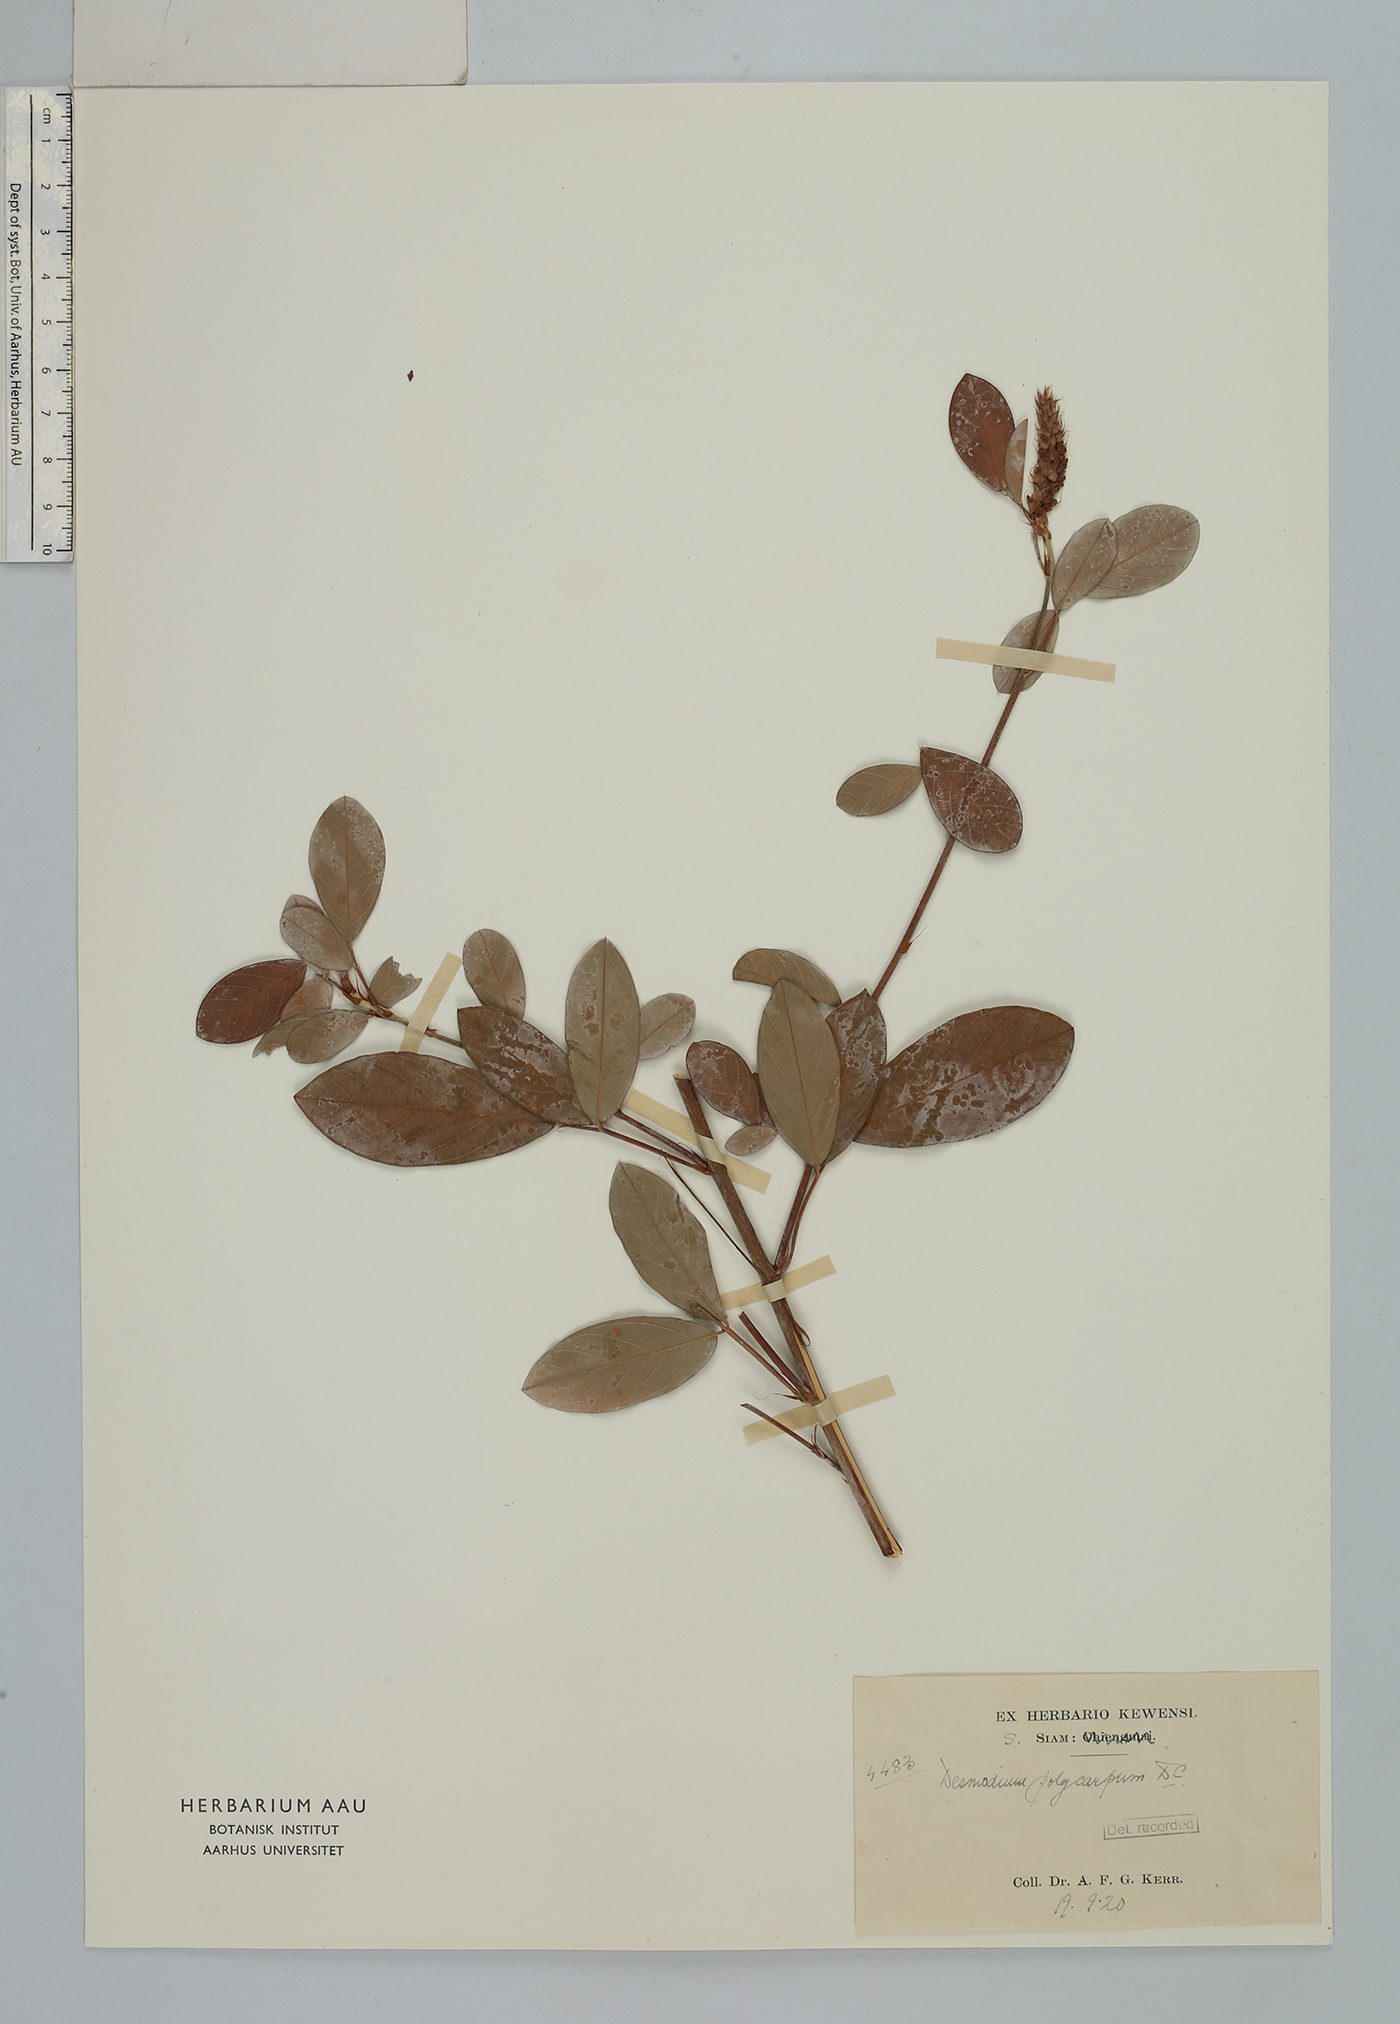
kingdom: Plantae
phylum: Tracheophyta
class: Magnoliopsida
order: Fabales
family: Fabaceae
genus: Grona
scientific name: Grona heterocarpos
